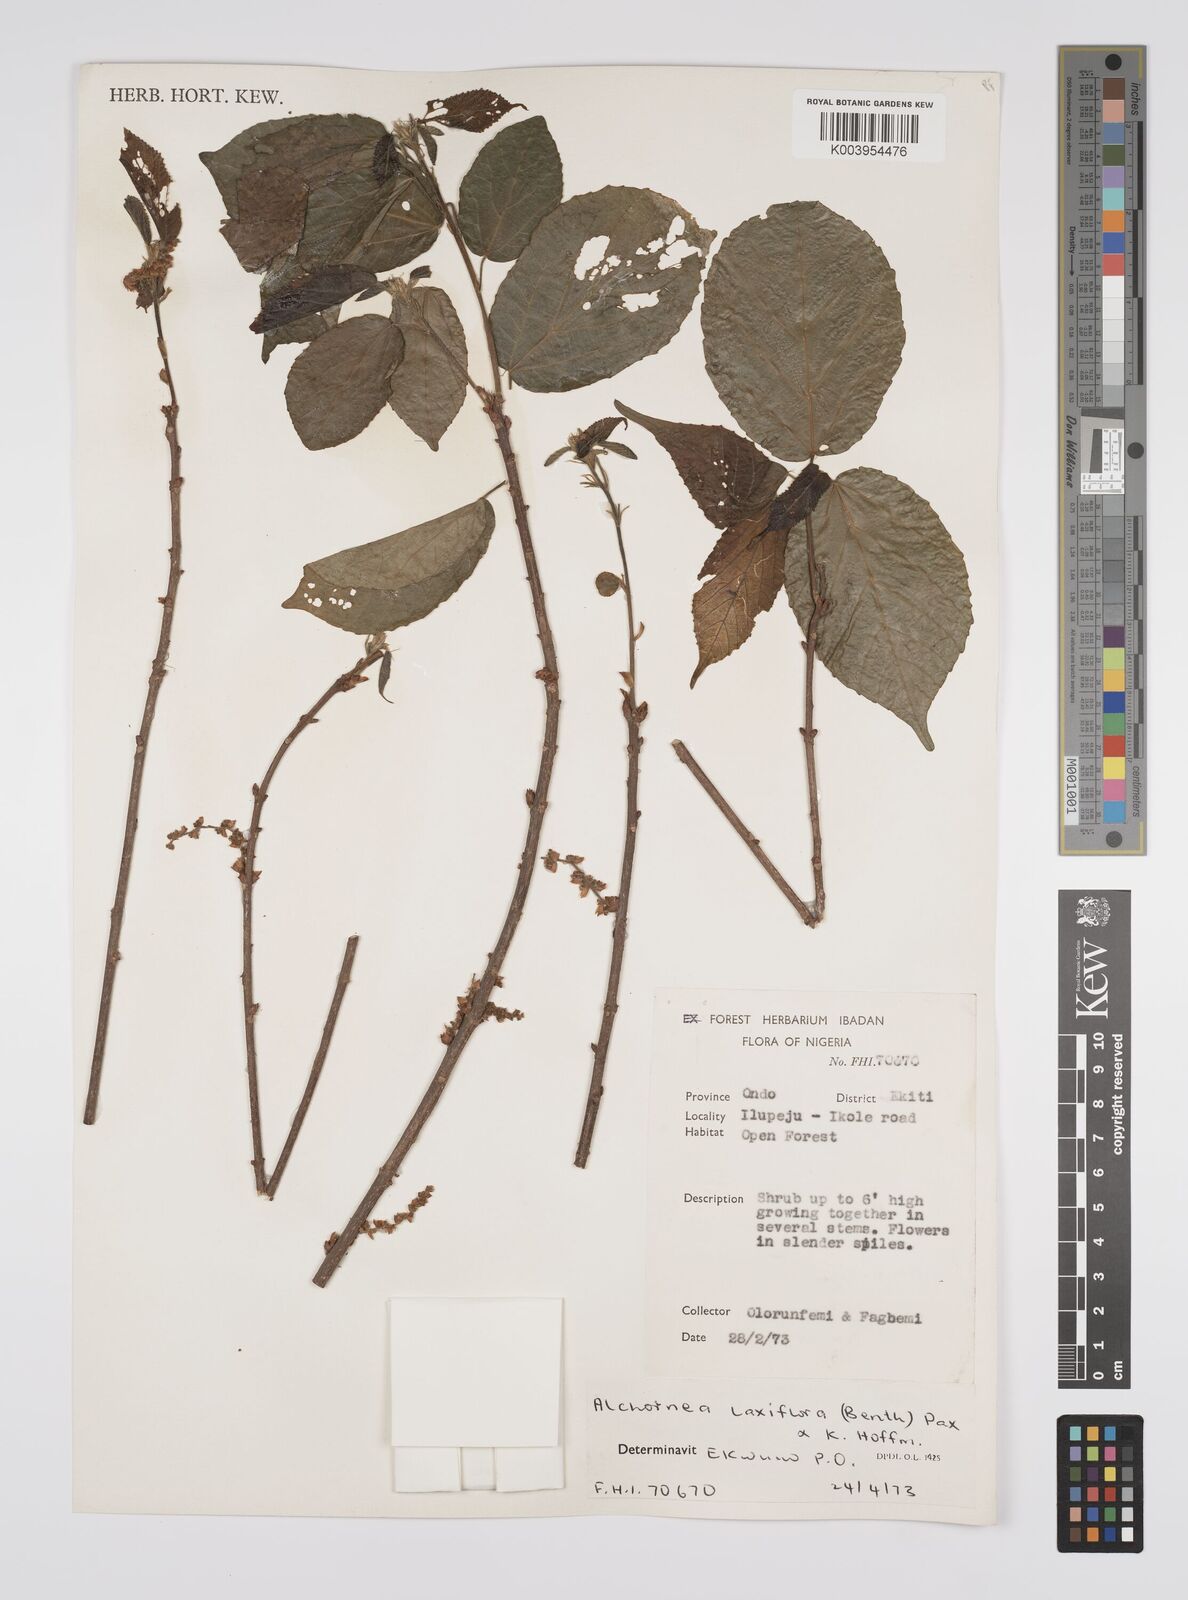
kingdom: Plantae
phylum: Tracheophyta
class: Magnoliopsida
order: Malpighiales
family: Euphorbiaceae
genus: Alchornea
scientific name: Alchornea laxiflora
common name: Lowveld bead-string
